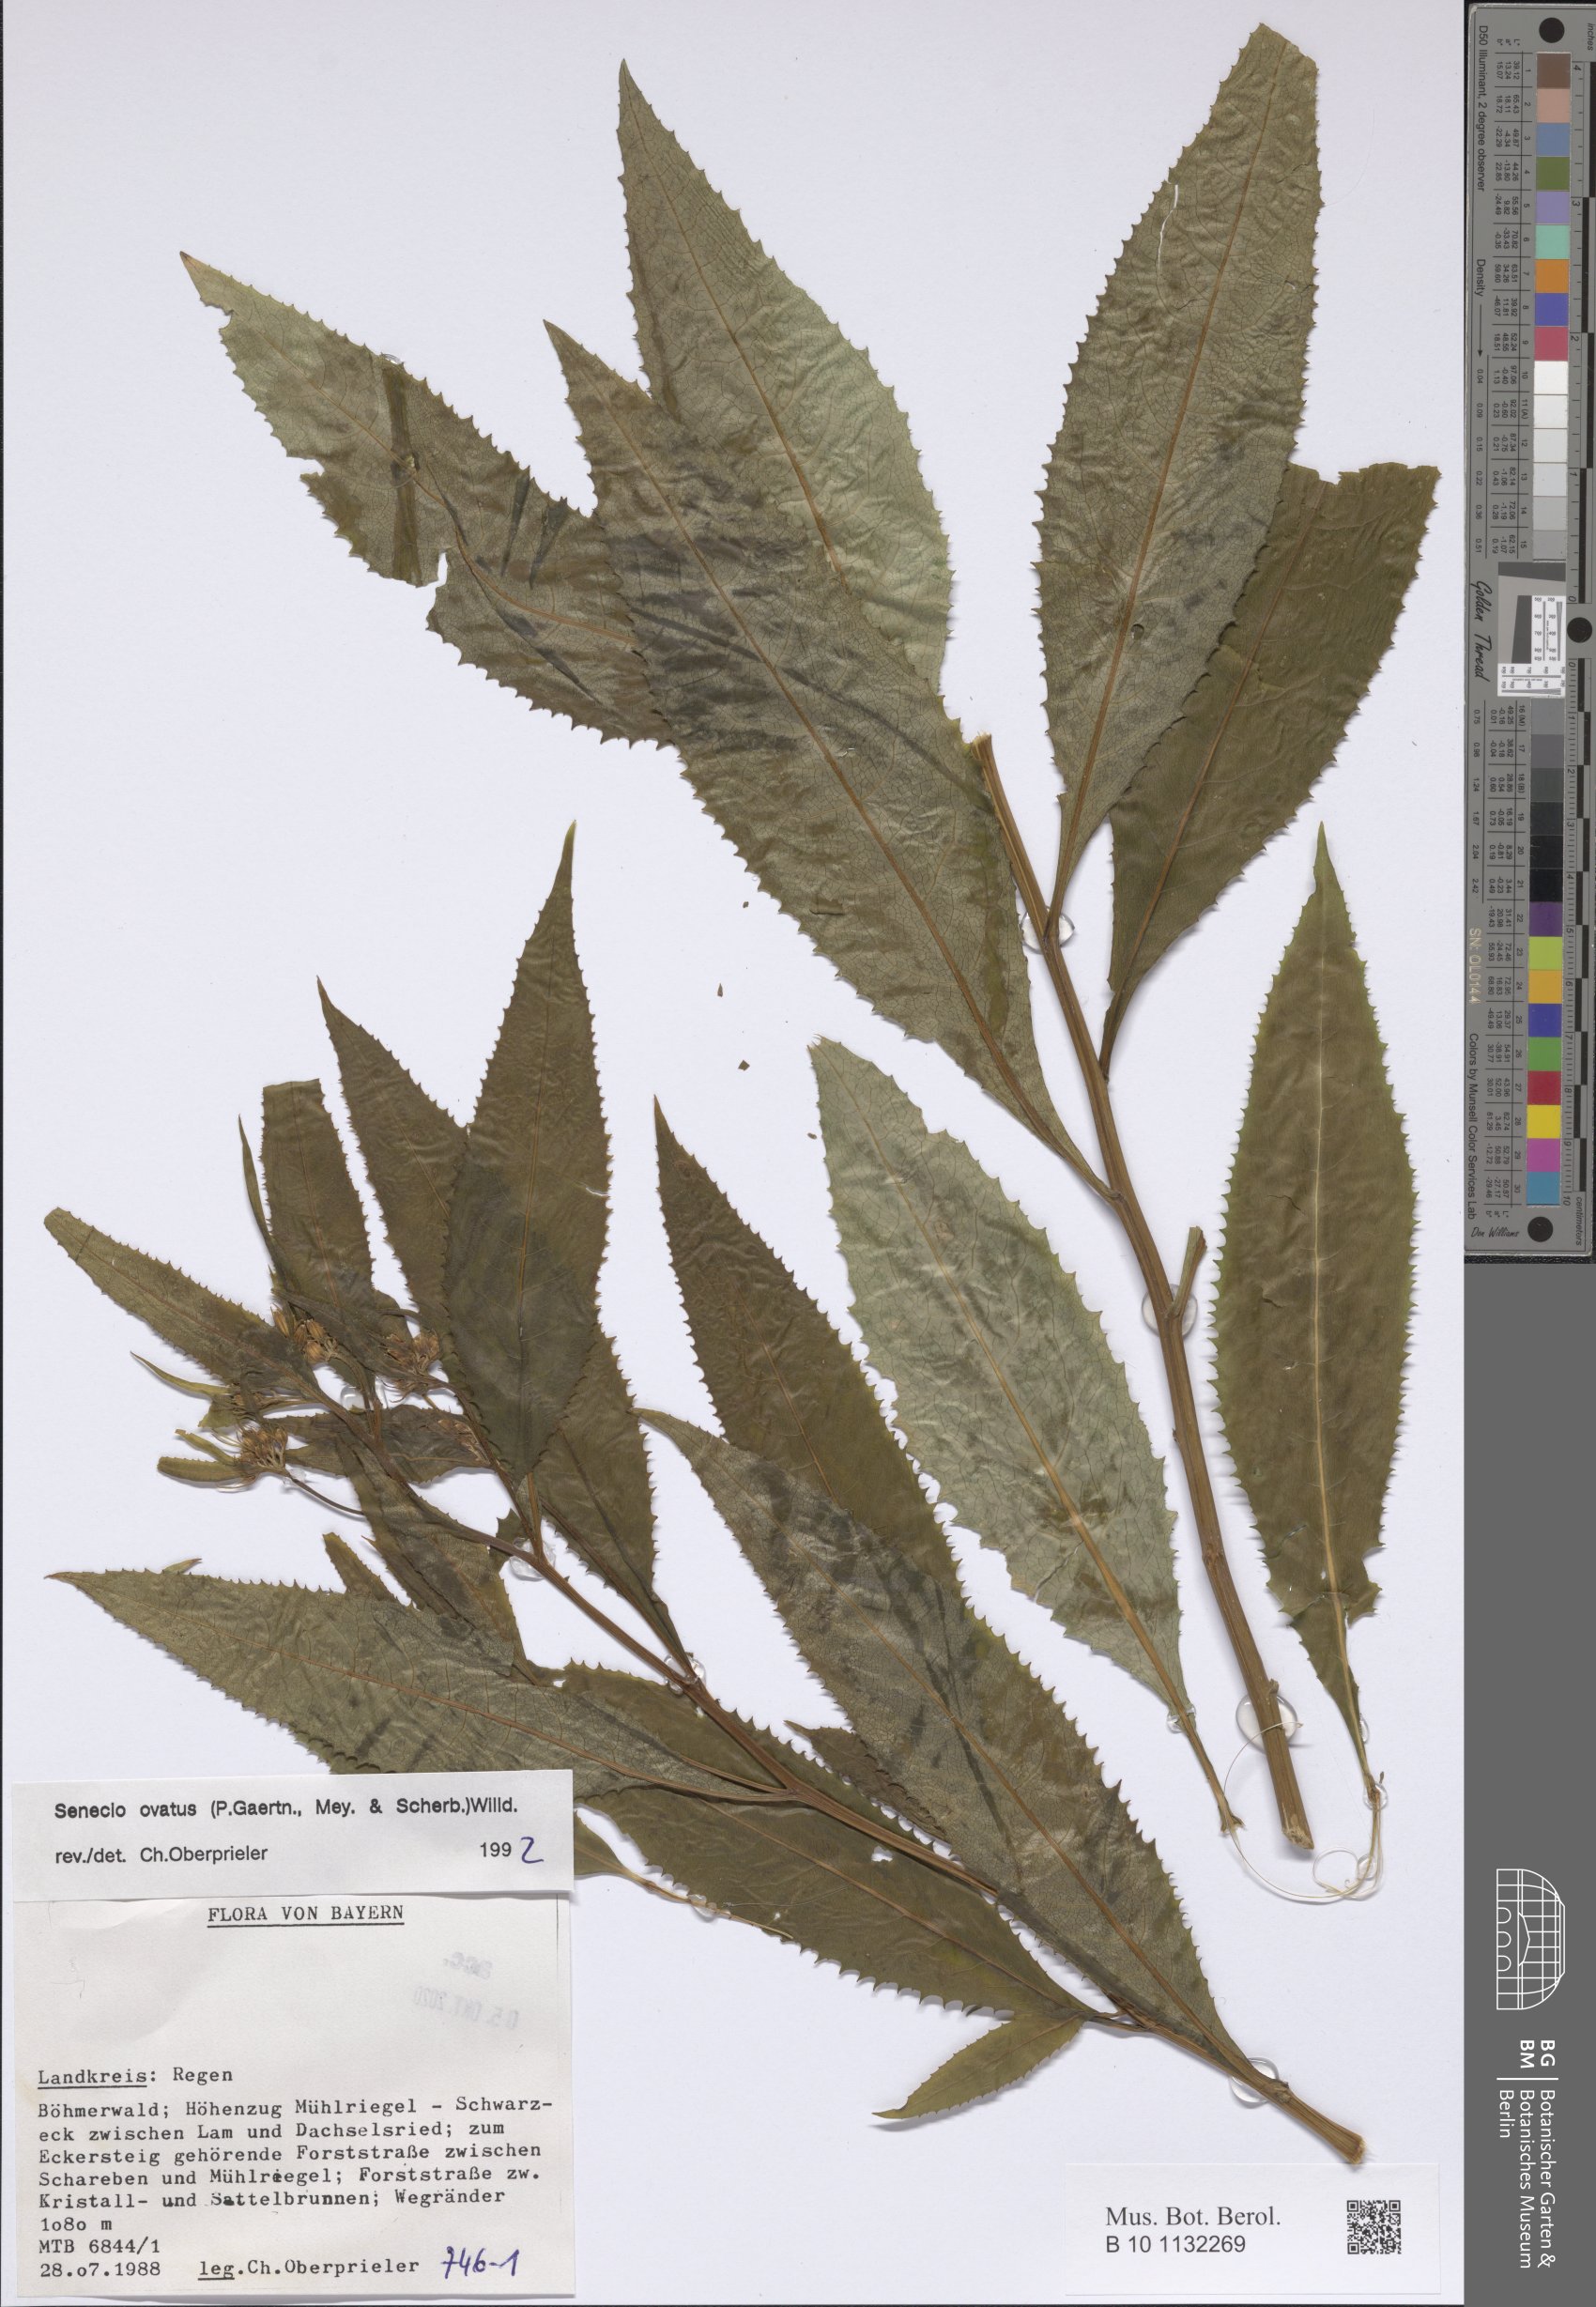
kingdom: Plantae
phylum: Tracheophyta
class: Magnoliopsida
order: Asterales
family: Asteraceae
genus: Senecio
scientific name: Senecio ovatus
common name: Wood ragwort
